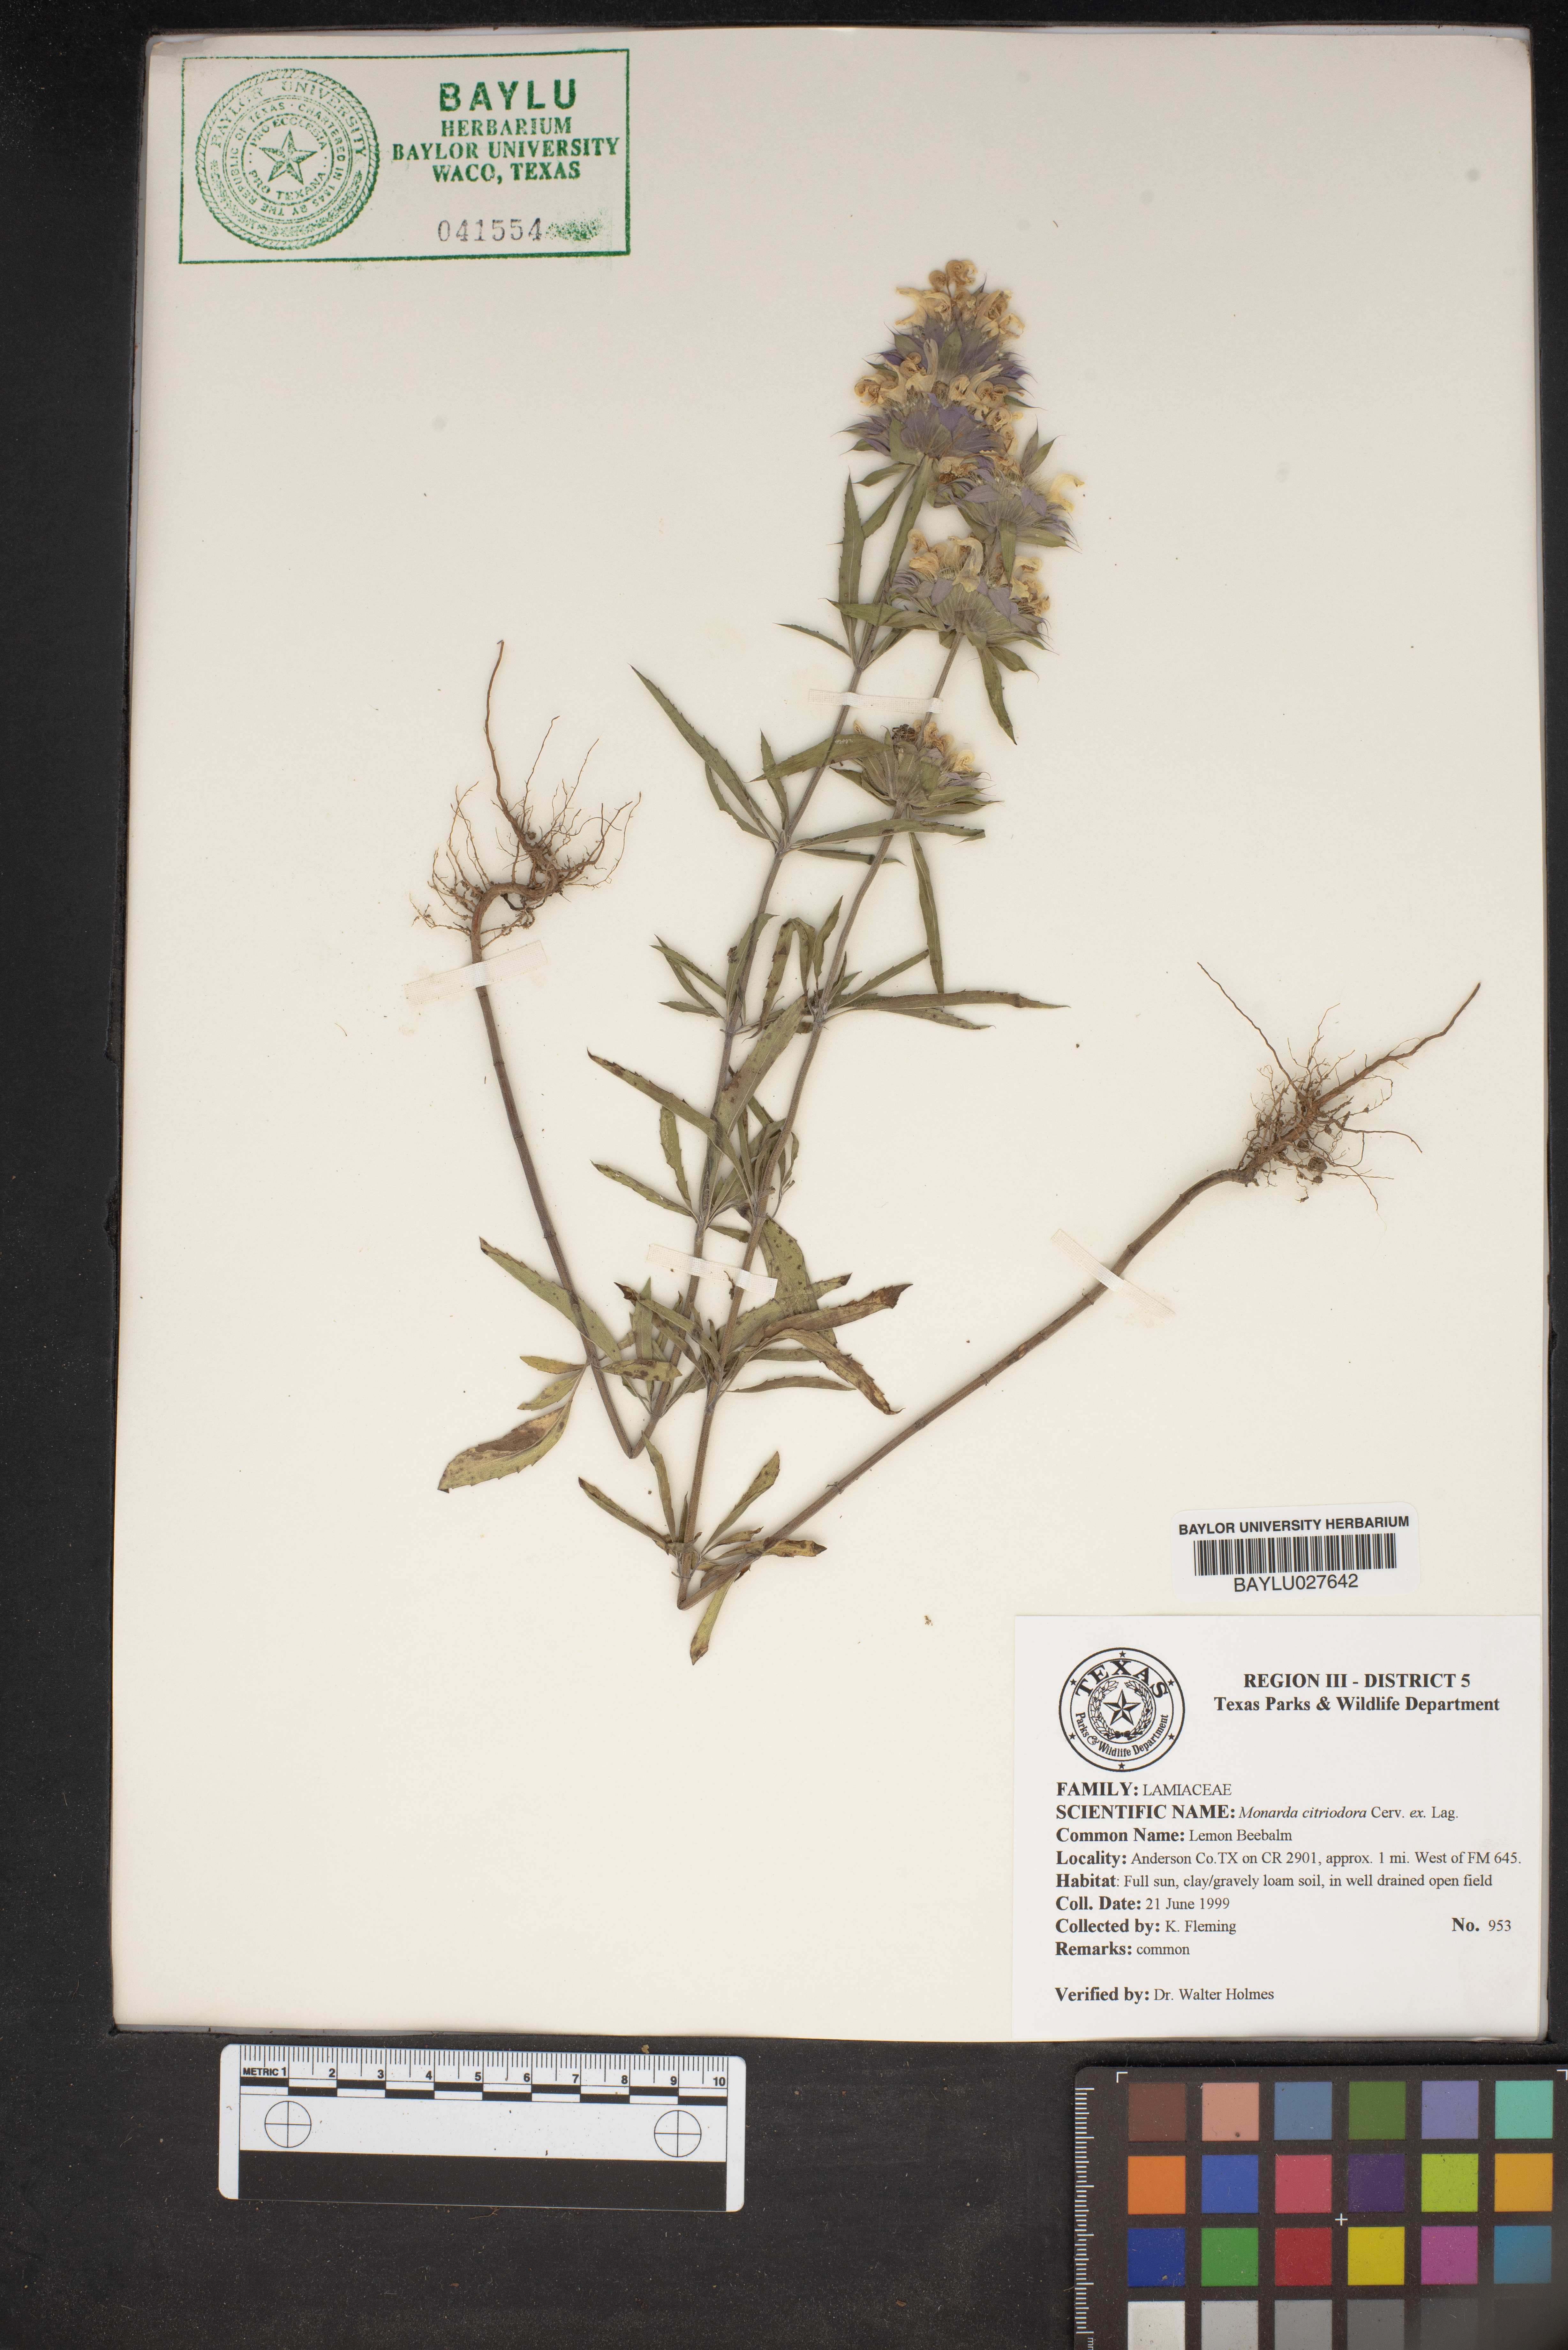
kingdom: Plantae
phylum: Tracheophyta
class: Magnoliopsida
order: Lamiales
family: Lamiaceae
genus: Monarda
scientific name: Monarda citriodora
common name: Lemon beebalm
